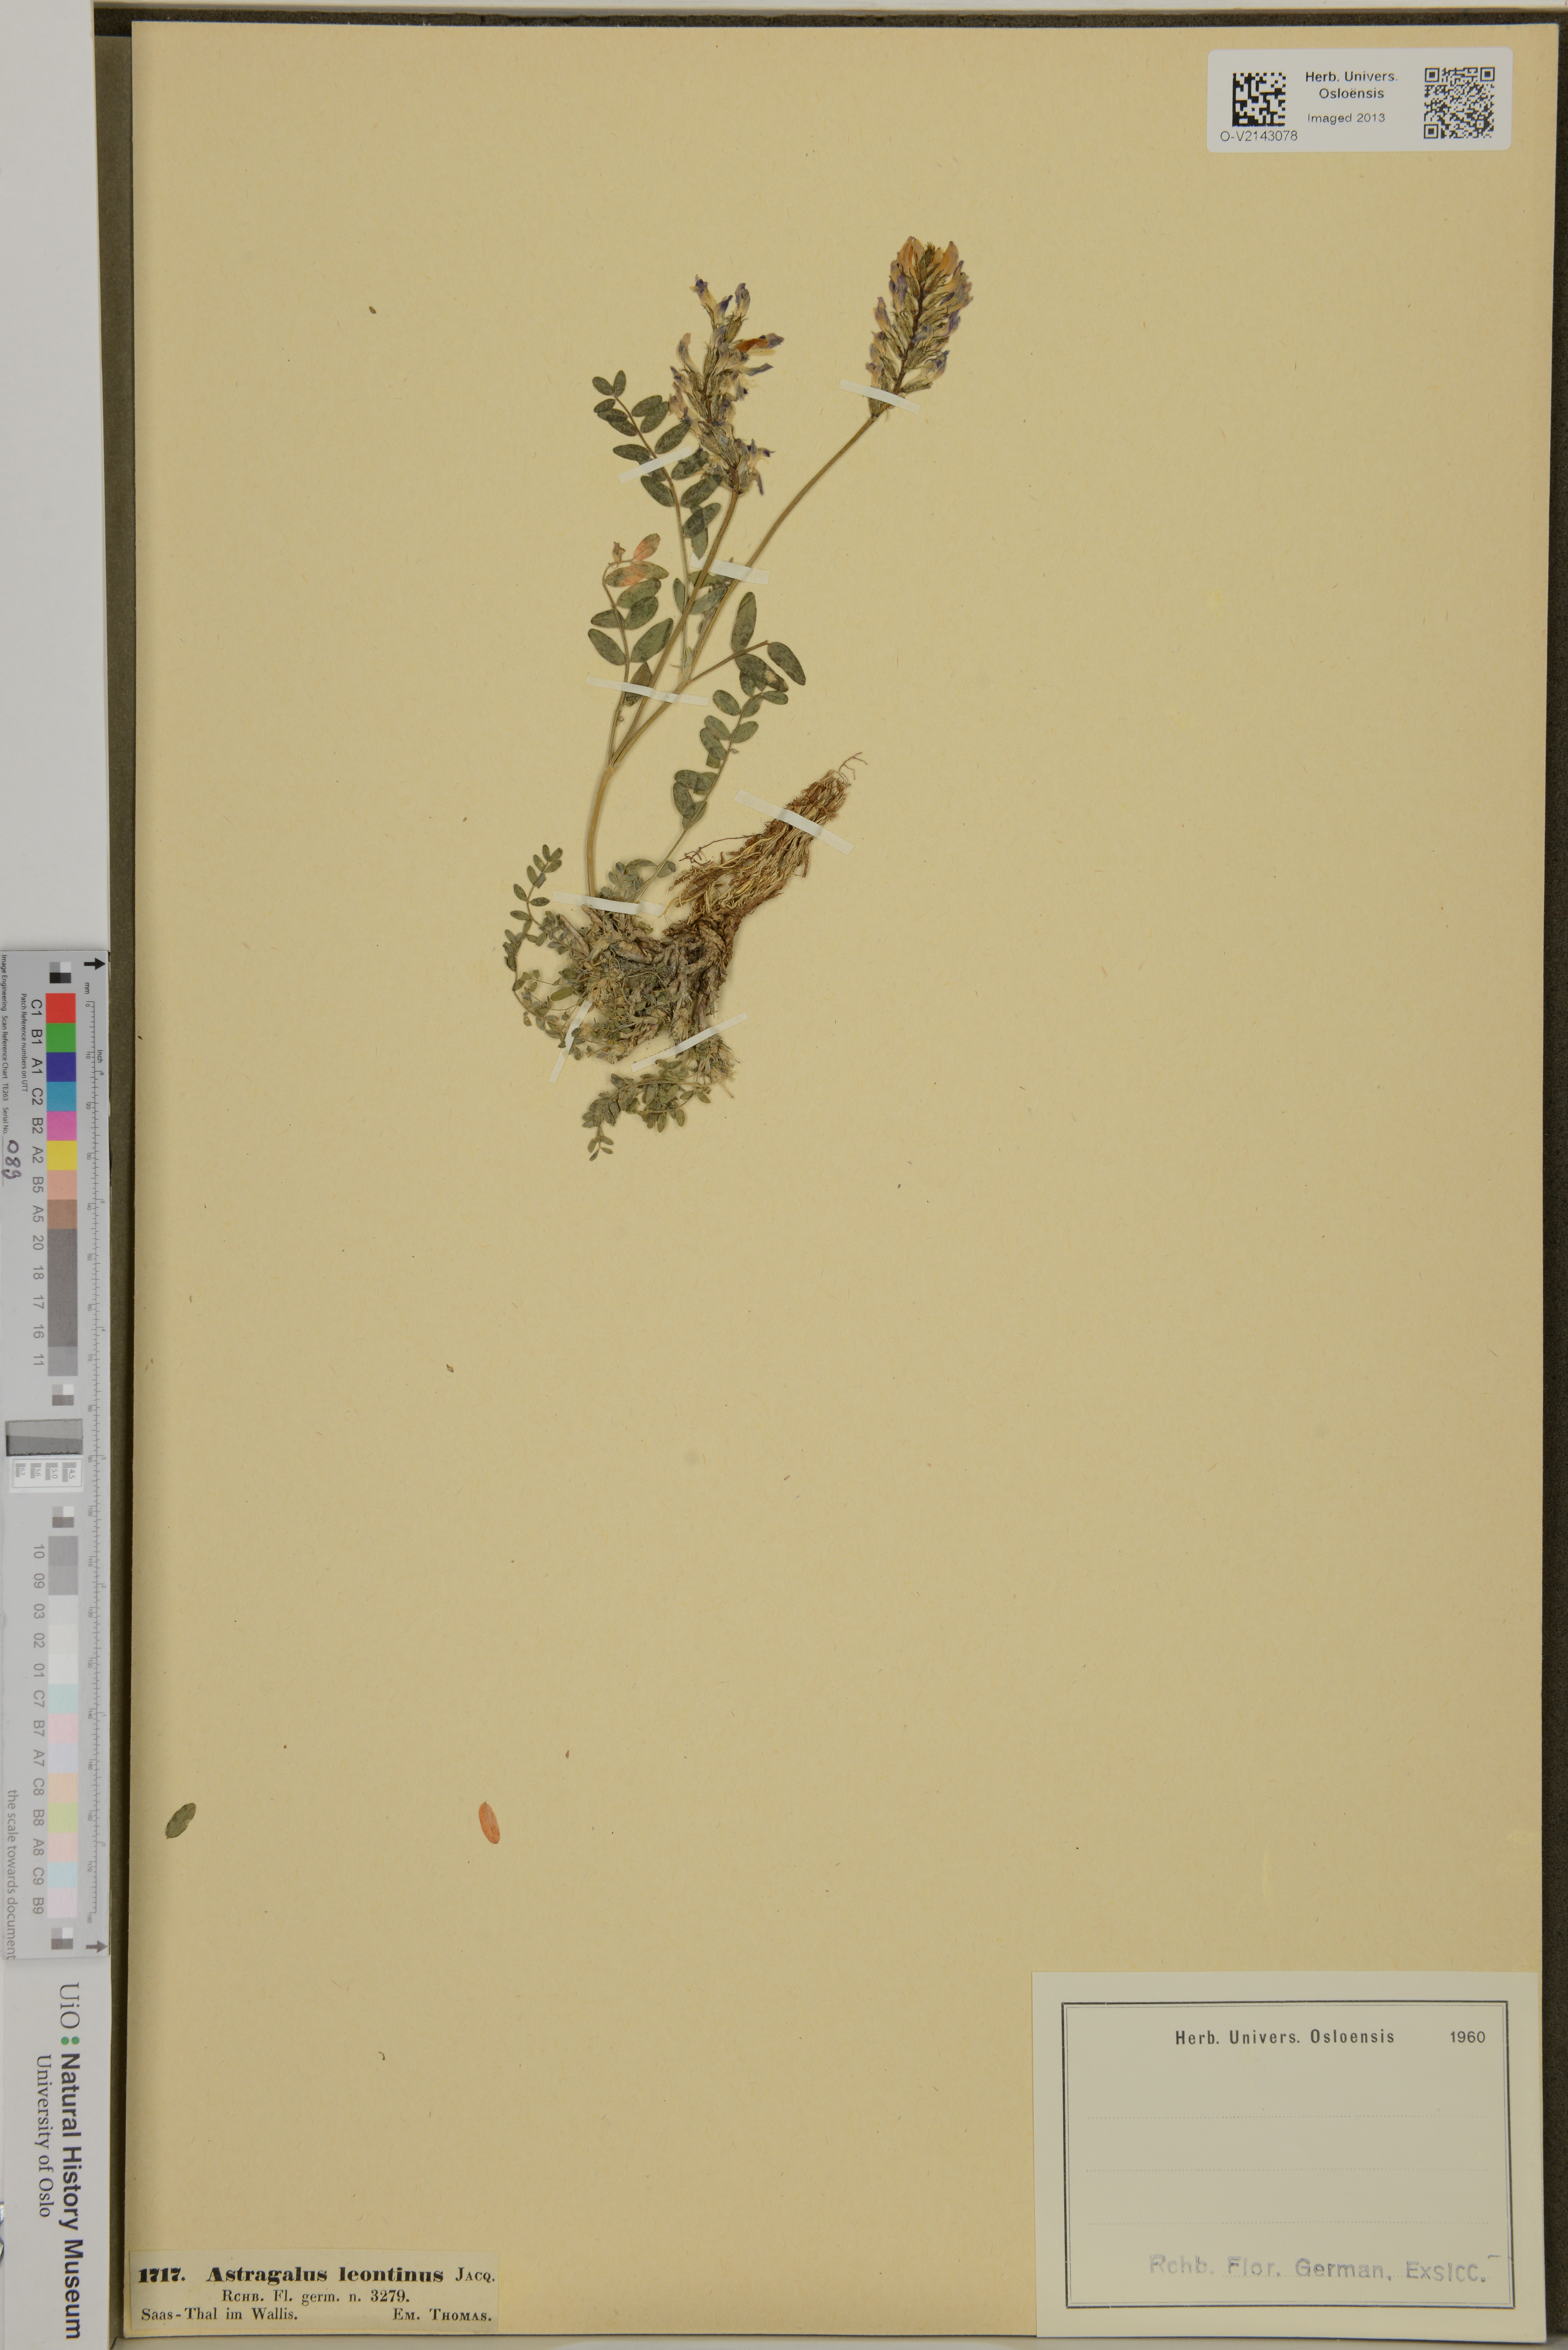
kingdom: Plantae
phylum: Tracheophyta
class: Magnoliopsida
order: Fabales
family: Fabaceae
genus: Astragalus
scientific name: Astragalus leontinus
